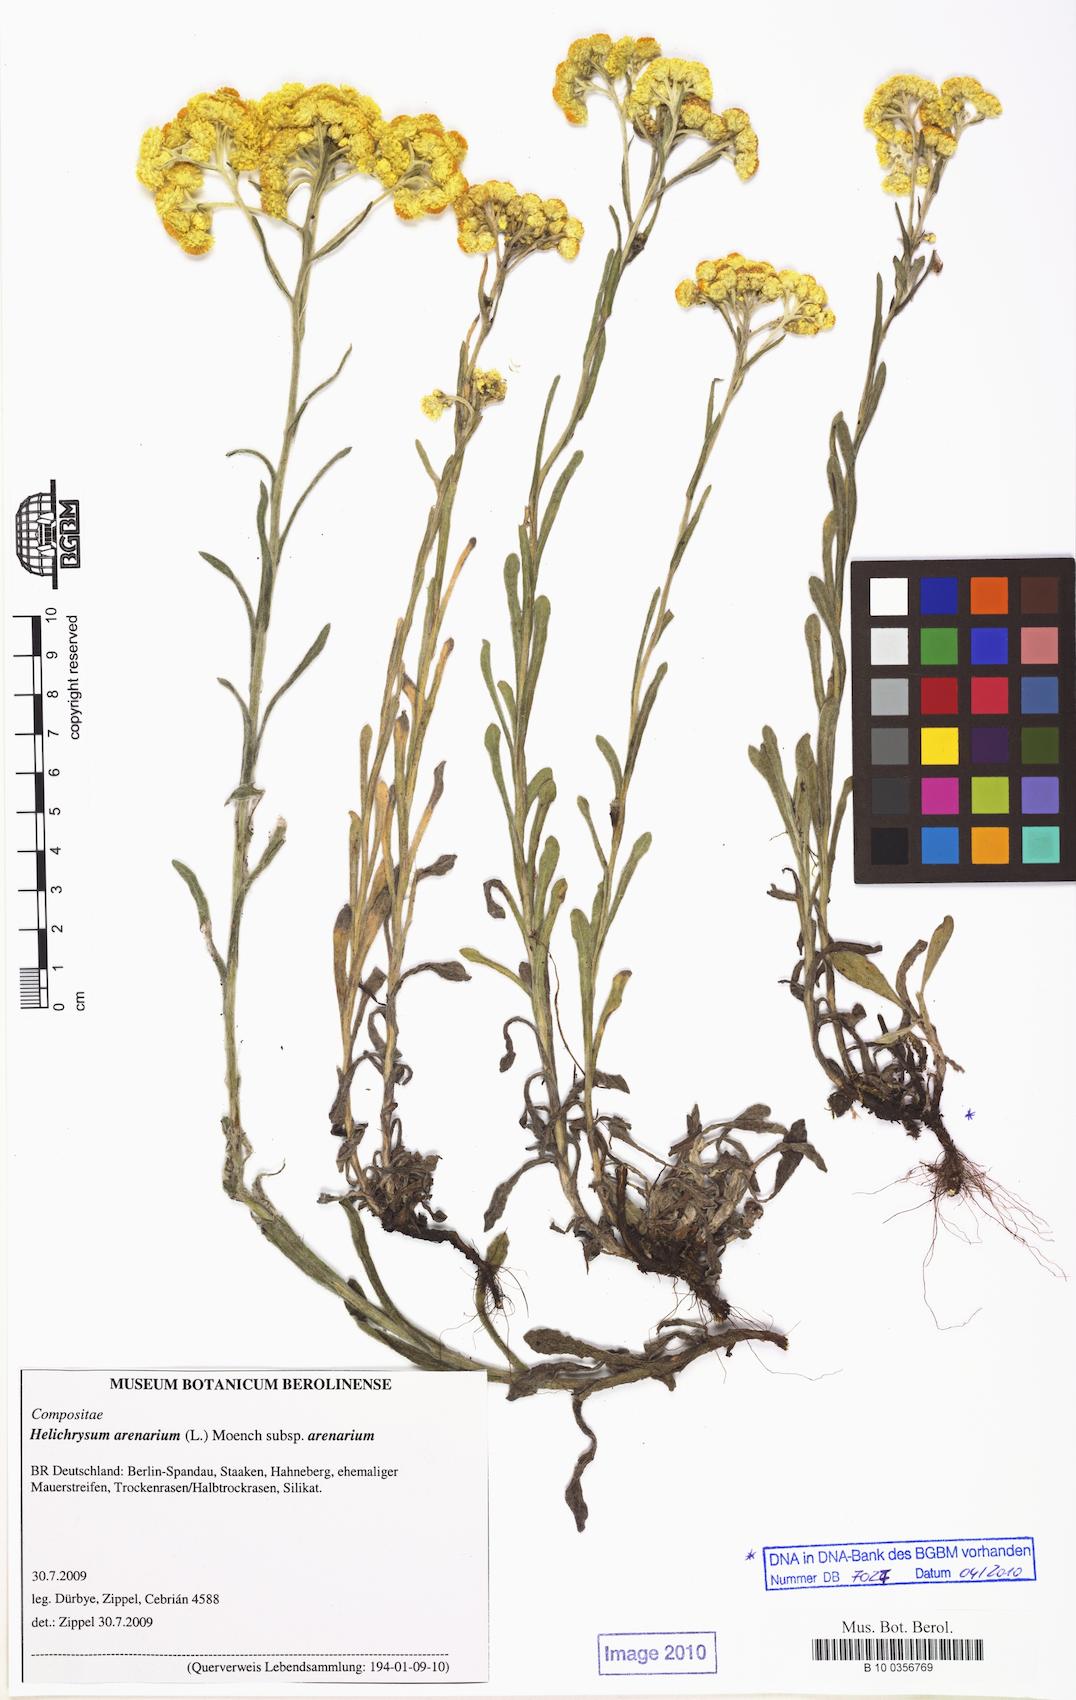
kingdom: Plantae
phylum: Tracheophyta
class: Magnoliopsida
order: Asterales
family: Asteraceae
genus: Helichrysum
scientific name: Helichrysum arenarium
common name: Strawflower
